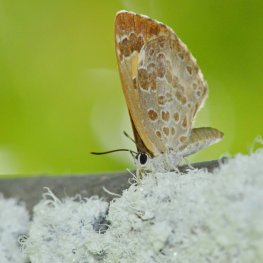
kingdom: Animalia
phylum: Arthropoda
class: Insecta
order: Lepidoptera
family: Lycaenidae
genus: Feniseca
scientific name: Feniseca tarquinius
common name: Harvester
